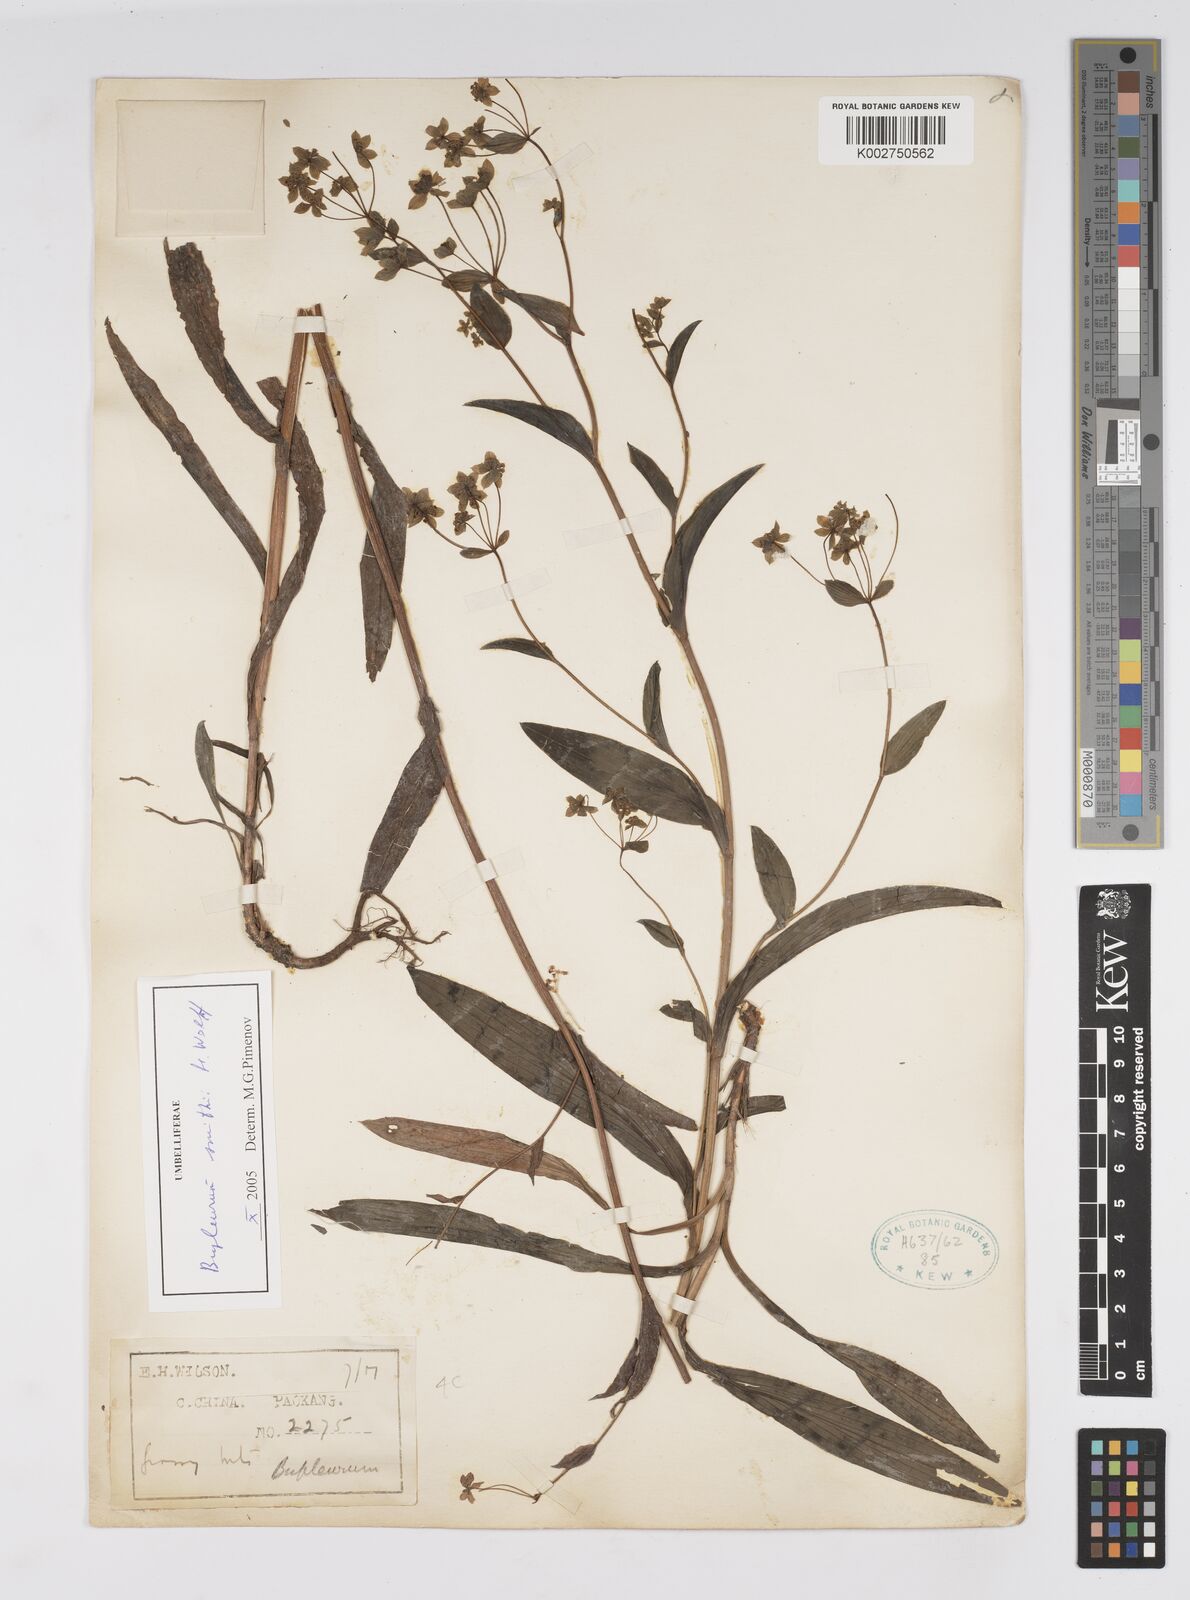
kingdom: Plantae
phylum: Tracheophyta
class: Magnoliopsida
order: Apiales
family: Apiaceae
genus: Bupleurum
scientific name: Bupleurum
